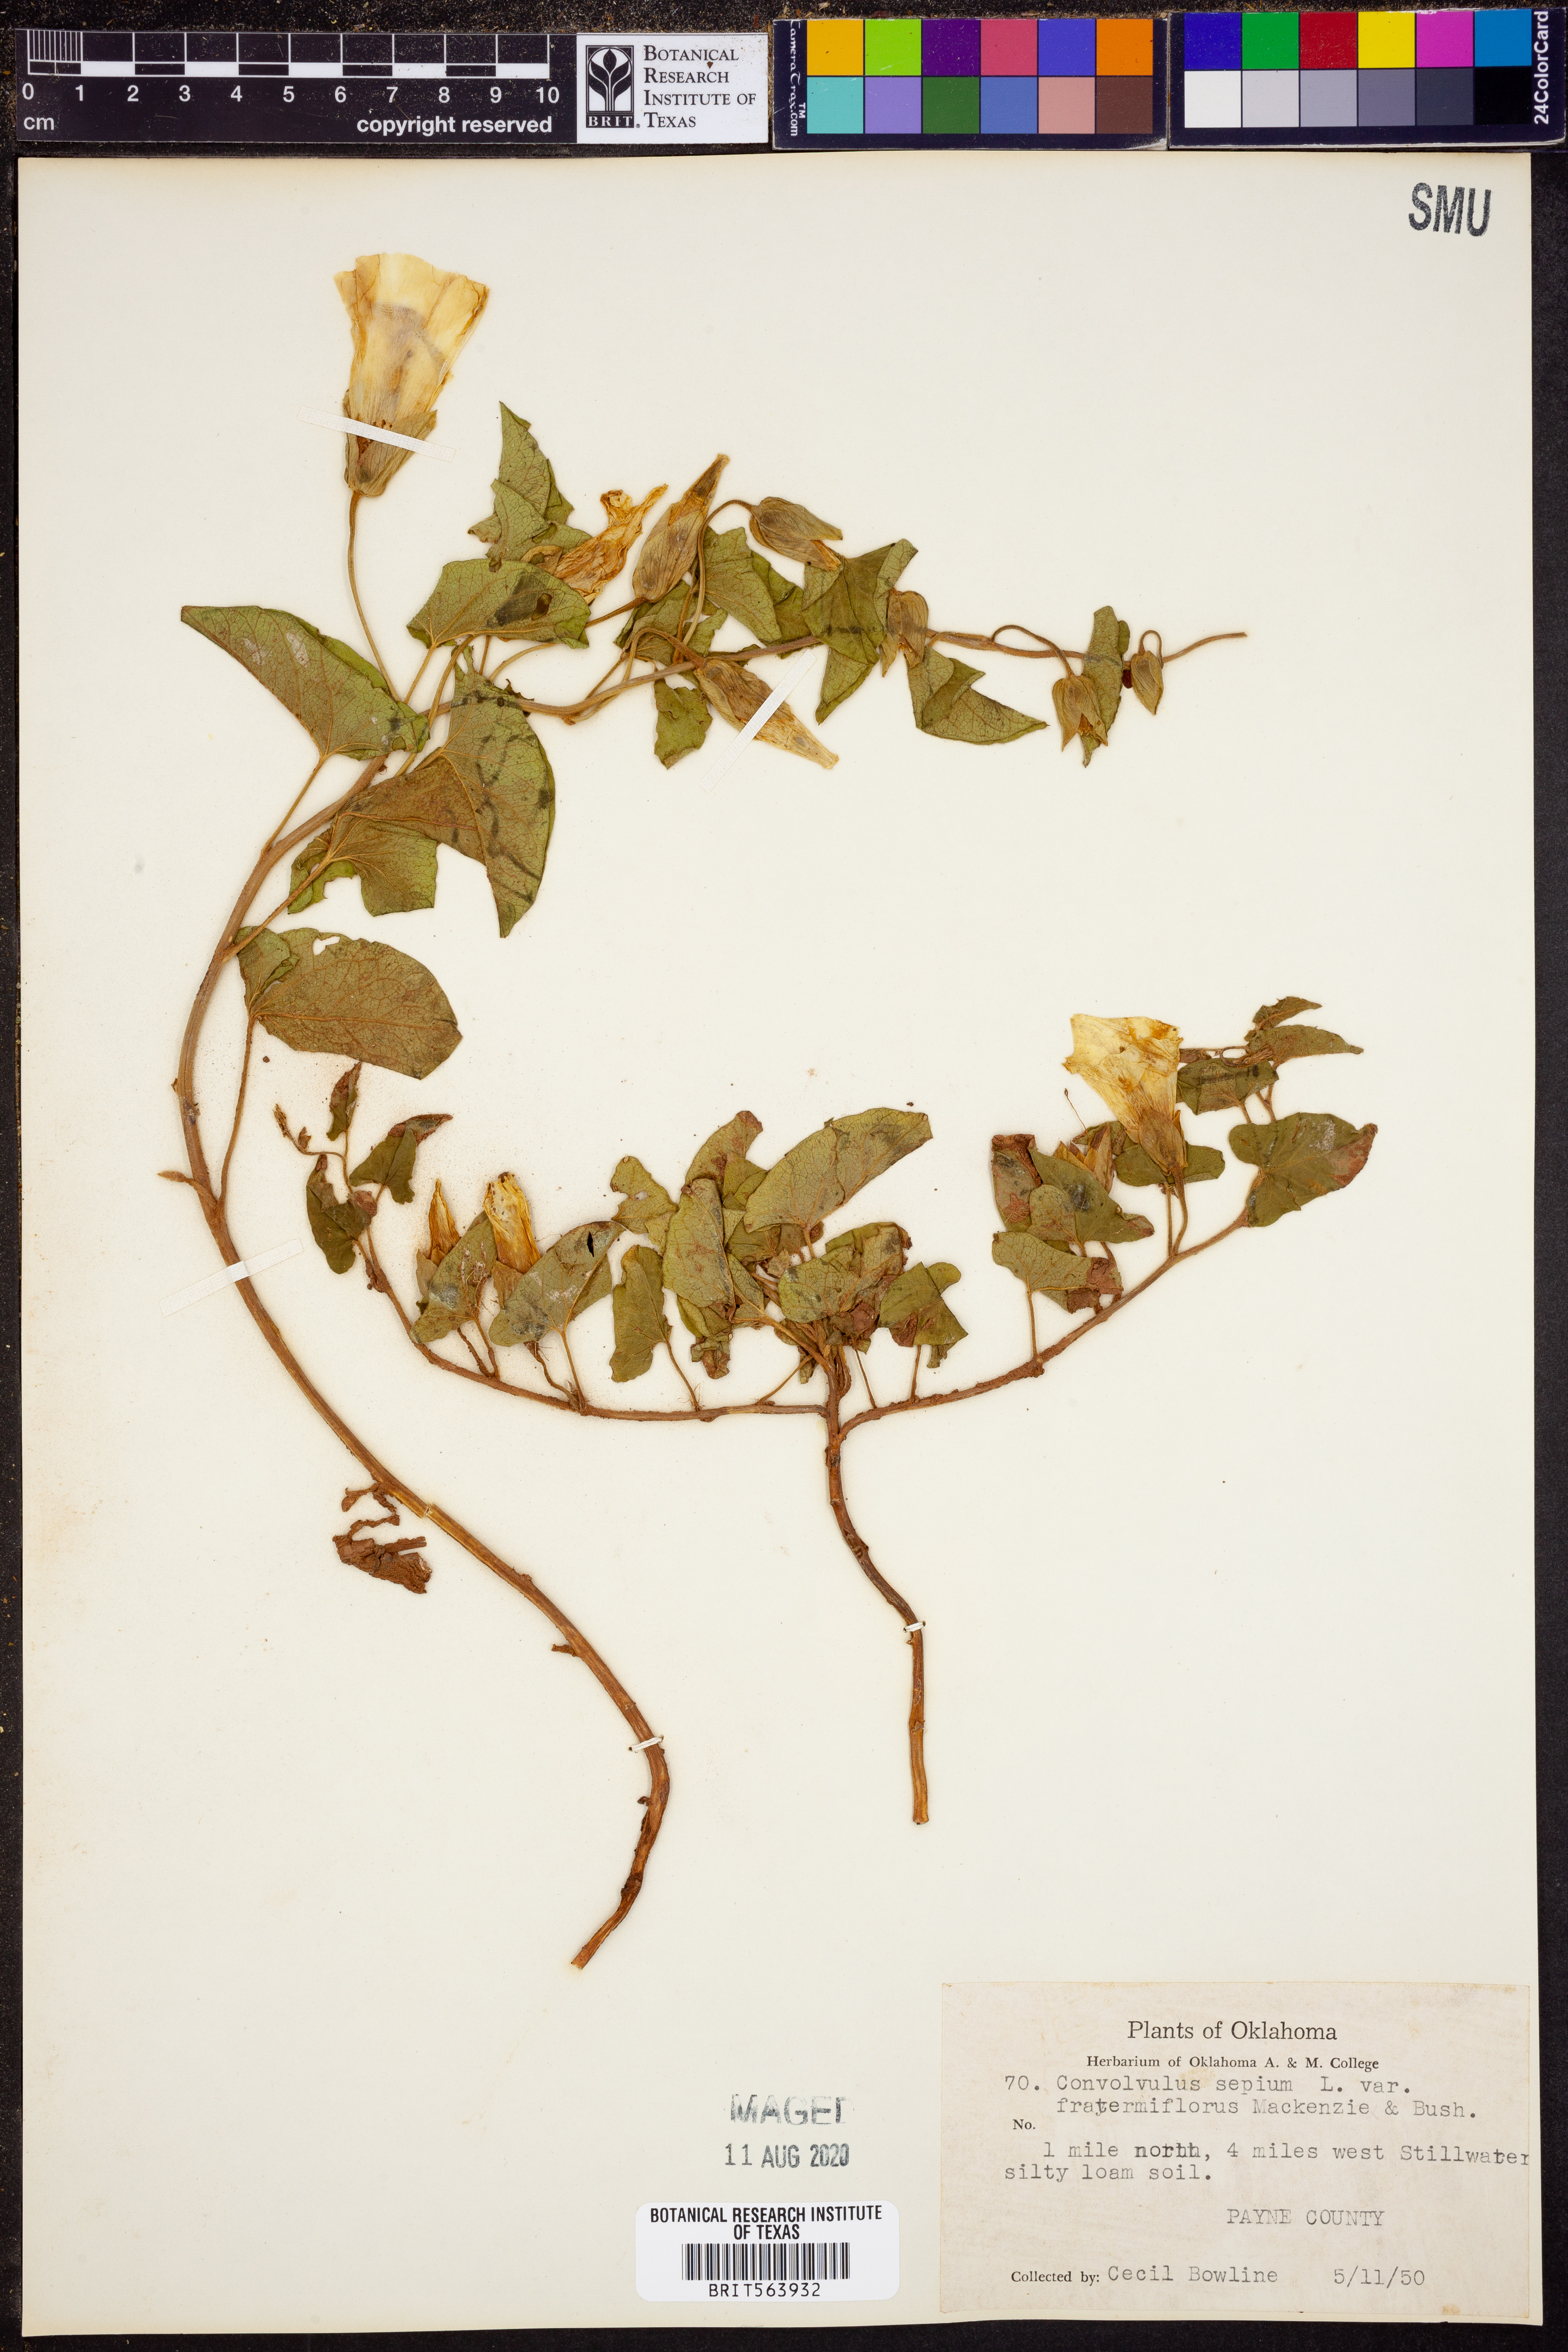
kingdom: Plantae
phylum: Tracheophyta
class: Magnoliopsida
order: Solanales
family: Convolvulaceae
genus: Calystegia
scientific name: Calystegia silvatica
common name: Large bindweed
